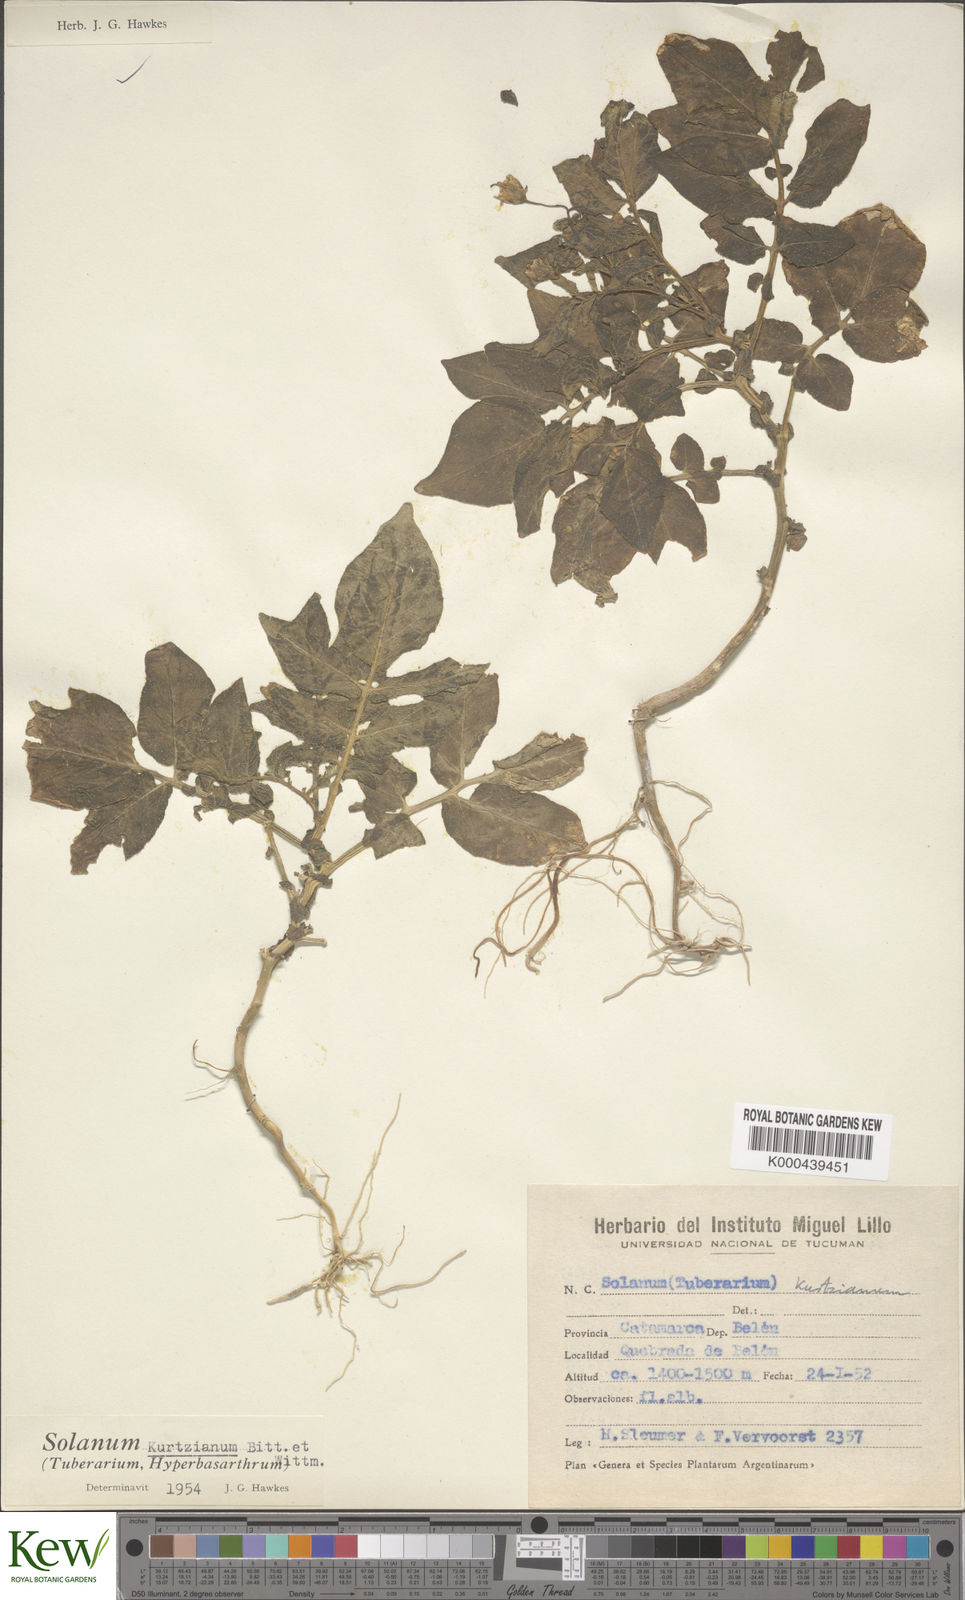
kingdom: Plantae
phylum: Tracheophyta
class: Magnoliopsida
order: Solanales
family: Solanaceae
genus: Solanum
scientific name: Solanum kurtzianum
